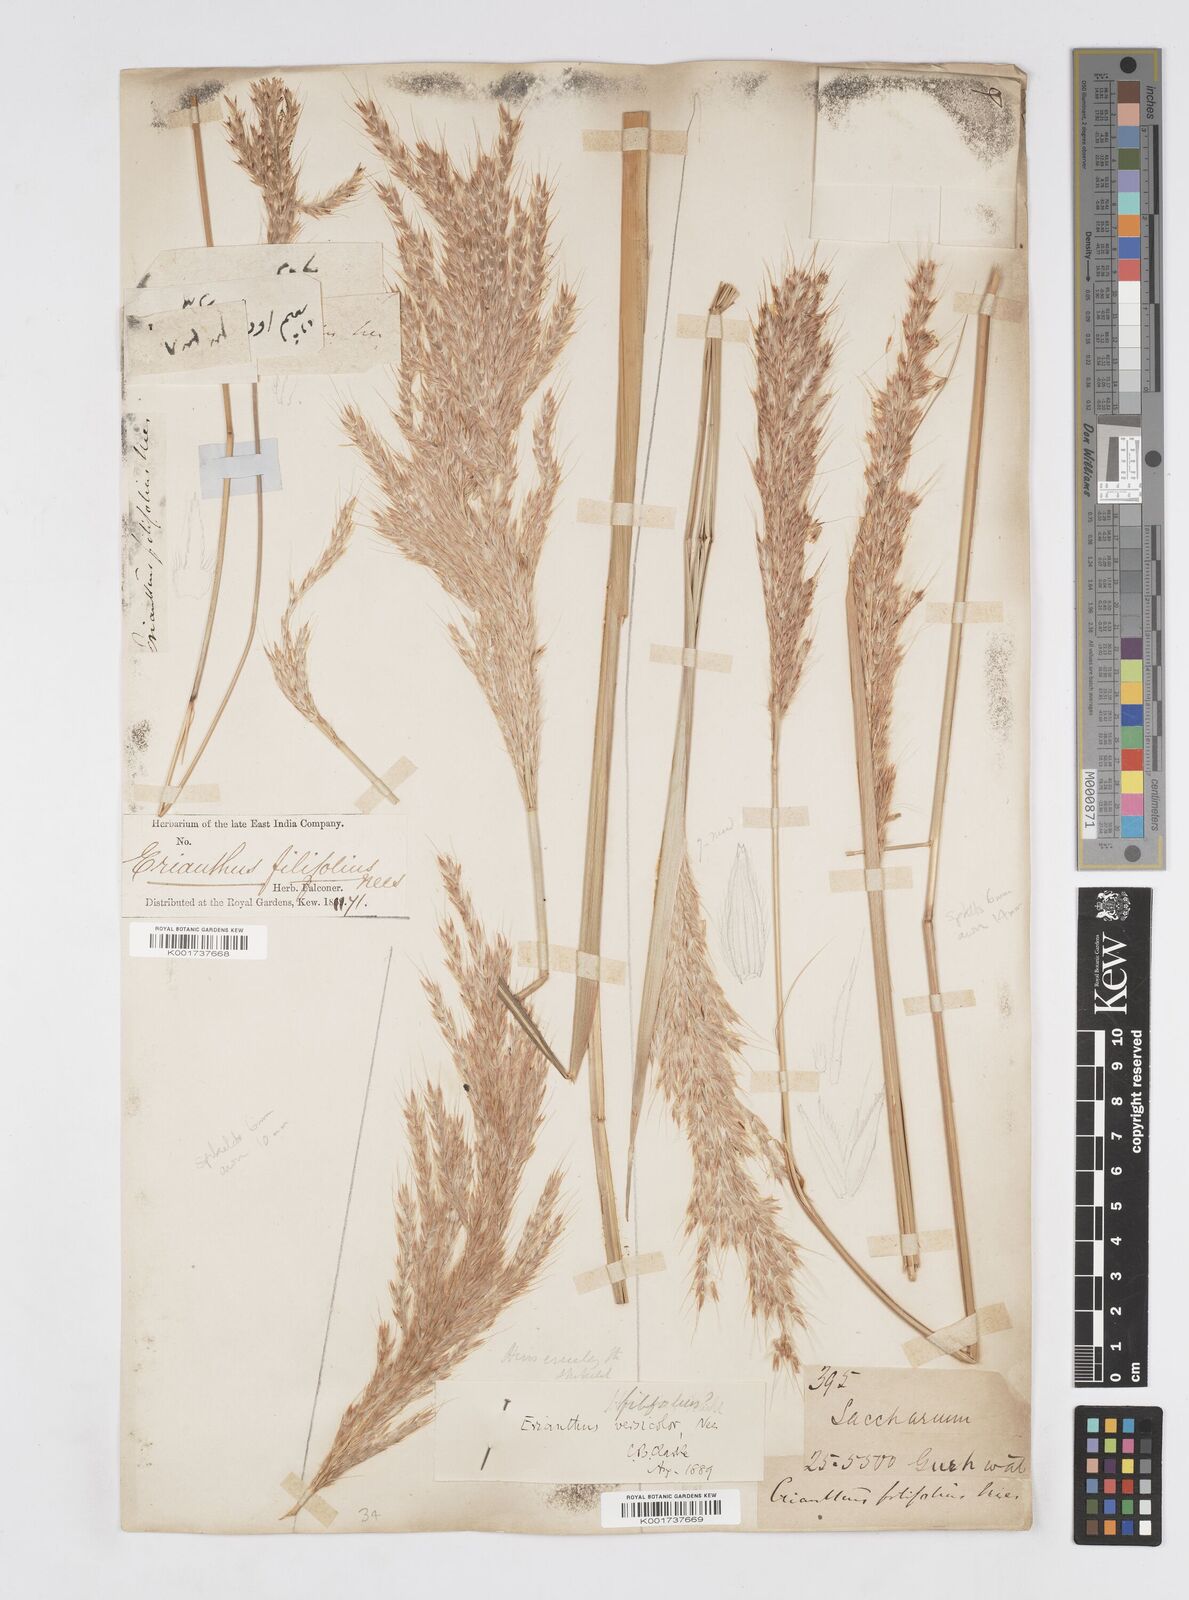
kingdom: Plantae
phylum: Tracheophyta
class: Liliopsida
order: Poales
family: Poaceae
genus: Saccharum
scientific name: Saccharum filifolium
